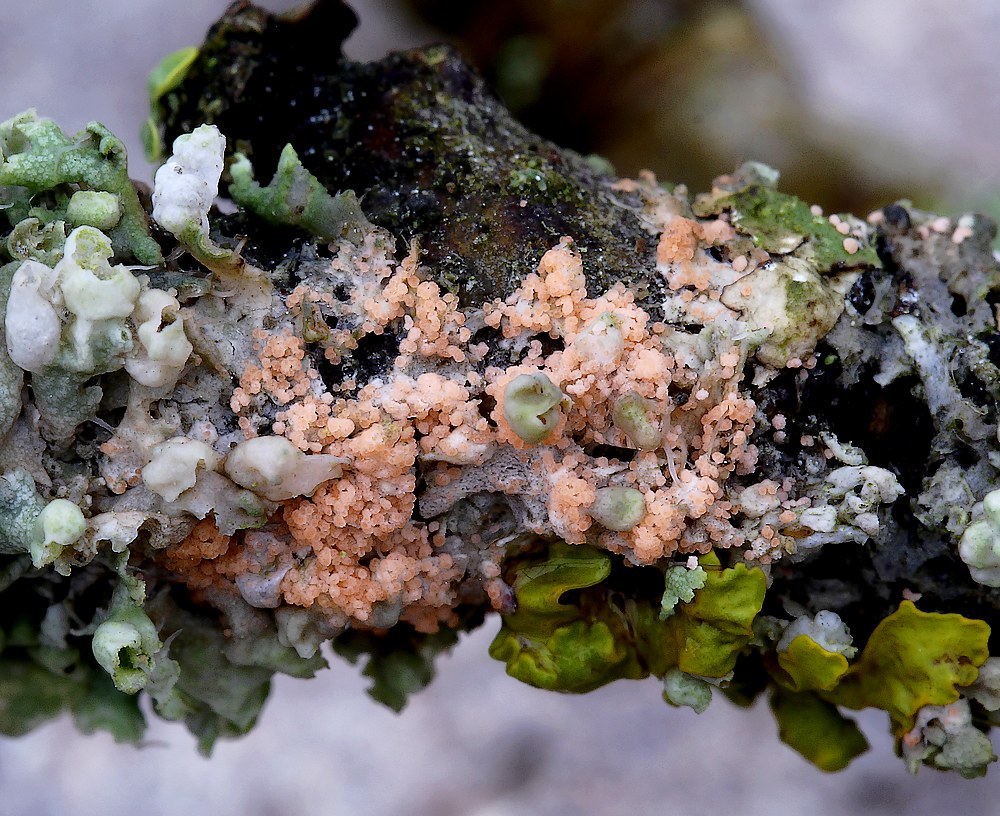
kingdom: Fungi
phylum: Basidiomycota
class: Agaricomycetes
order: Corticiales
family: Corticiaceae
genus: Erythricium
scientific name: Erythricium aurantiacum
